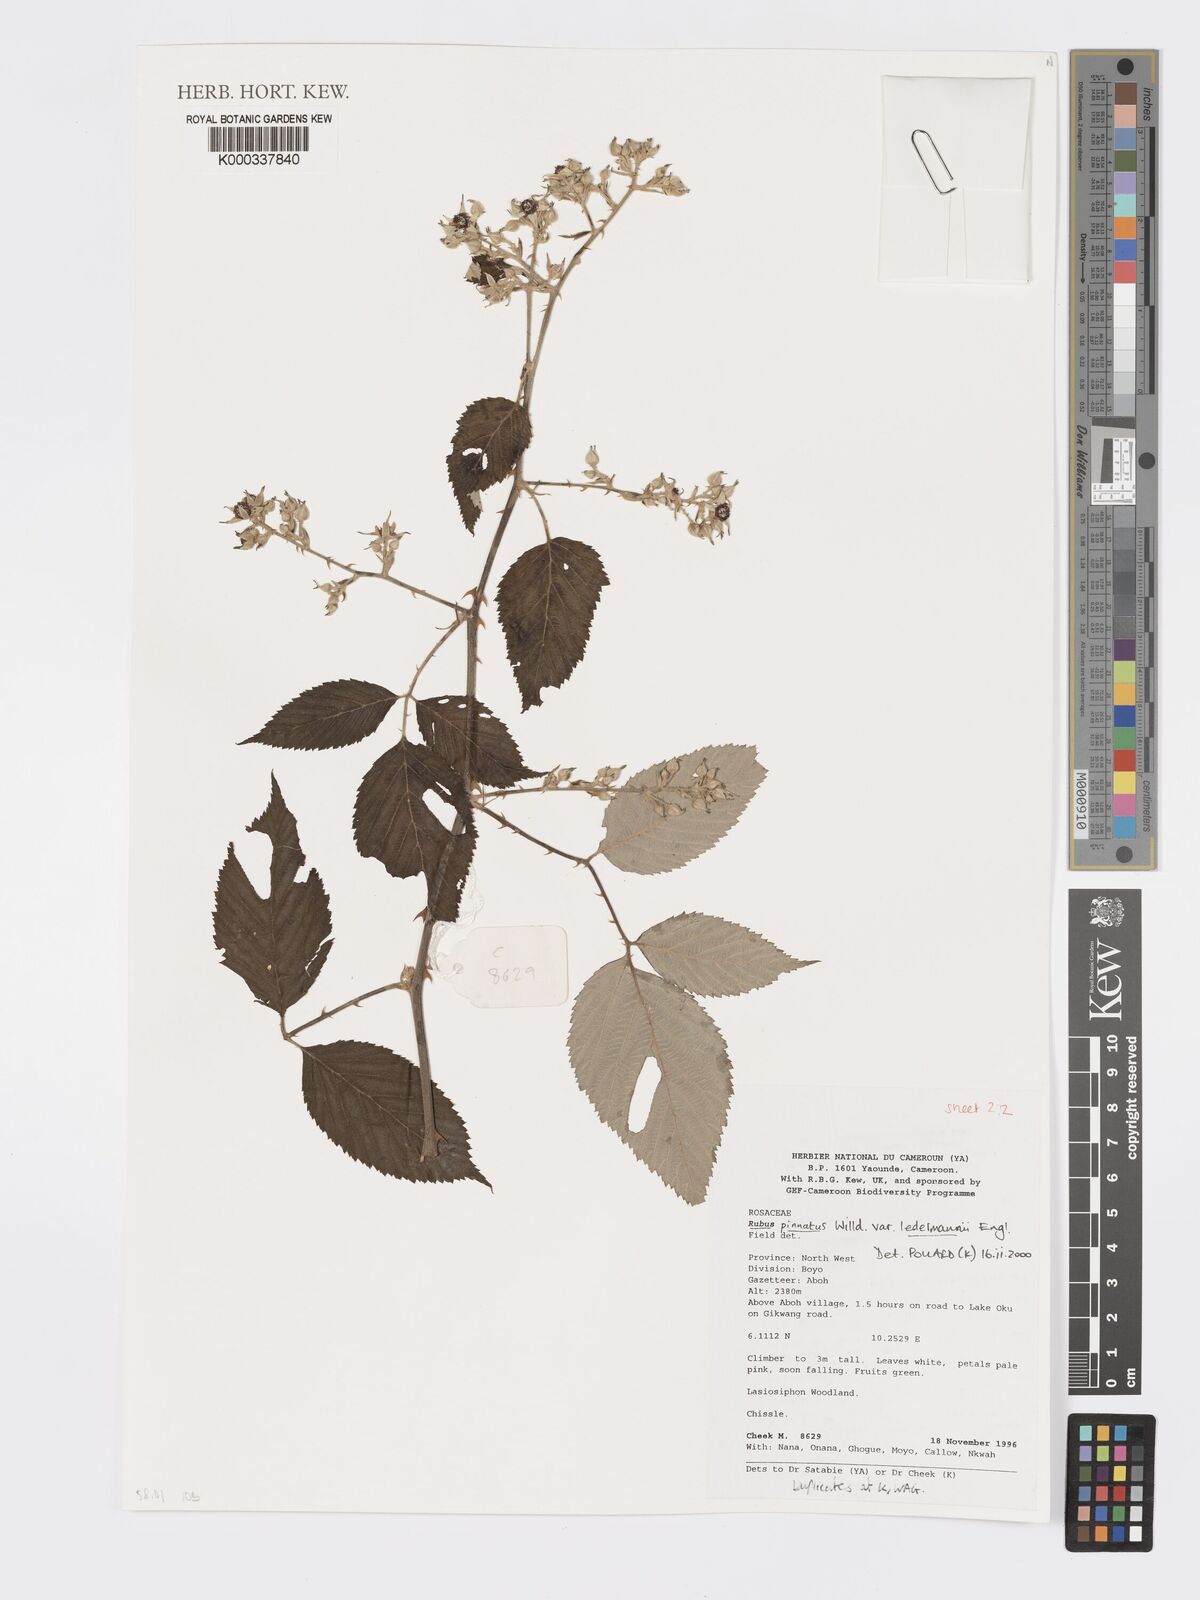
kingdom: Plantae
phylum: Tracheophyta
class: Magnoliopsida
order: Rosales
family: Rosaceae
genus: Rubus
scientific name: Rubus pinnatus
